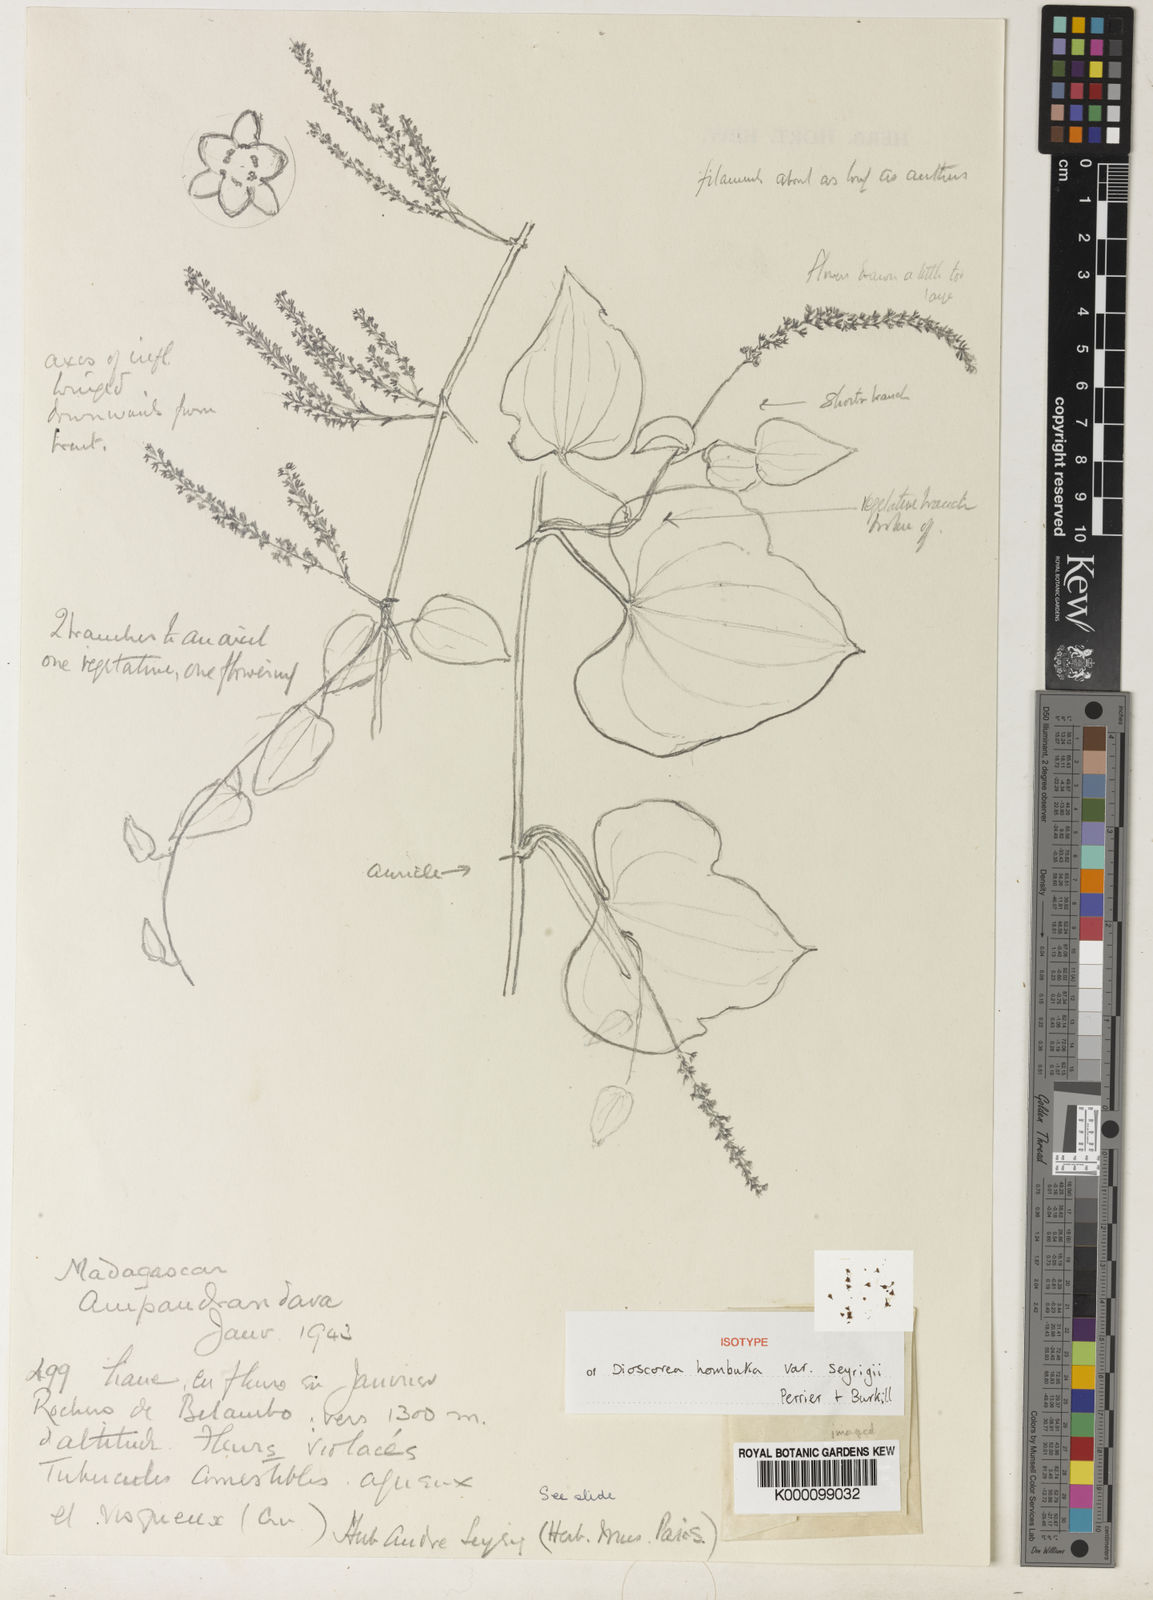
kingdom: Plantae
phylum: Tracheophyta
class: Liliopsida
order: Dioscoreales
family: Dioscoreaceae
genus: Dioscorea
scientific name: Dioscorea hombuka
